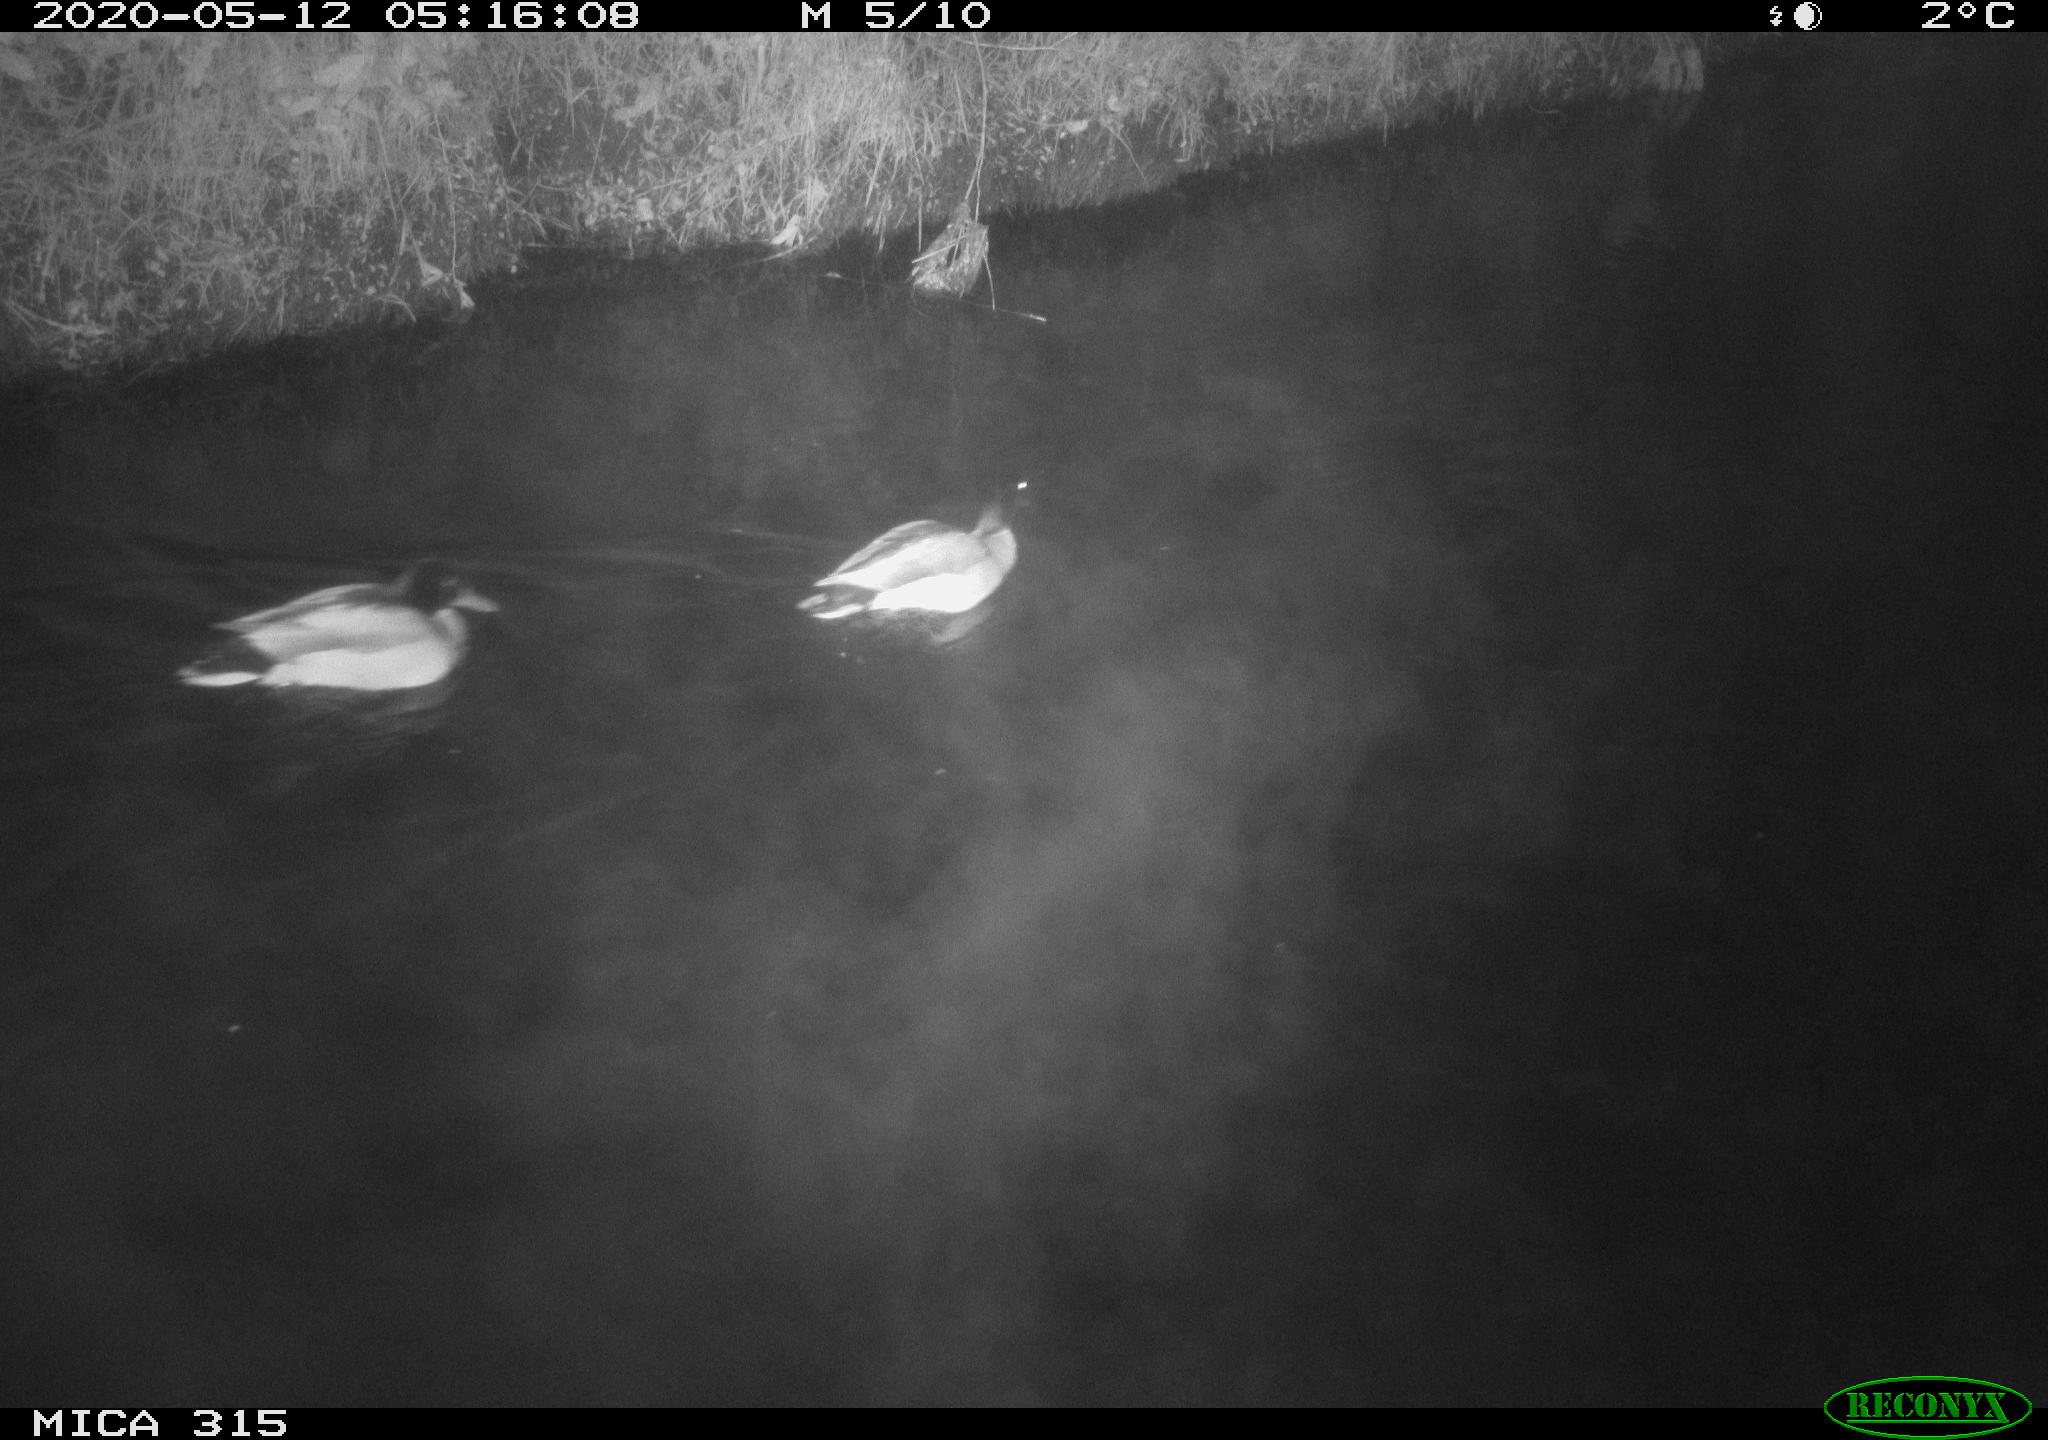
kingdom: Animalia
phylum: Chordata
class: Aves
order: Anseriformes
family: Anatidae
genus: Anas
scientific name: Anas platyrhynchos
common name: Mallard
